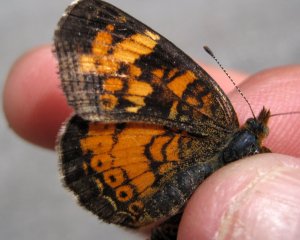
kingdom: Animalia
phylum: Arthropoda
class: Insecta
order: Lepidoptera
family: Nymphalidae
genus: Phyciodes
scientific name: Phyciodes tharos
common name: Pearl Crescent
